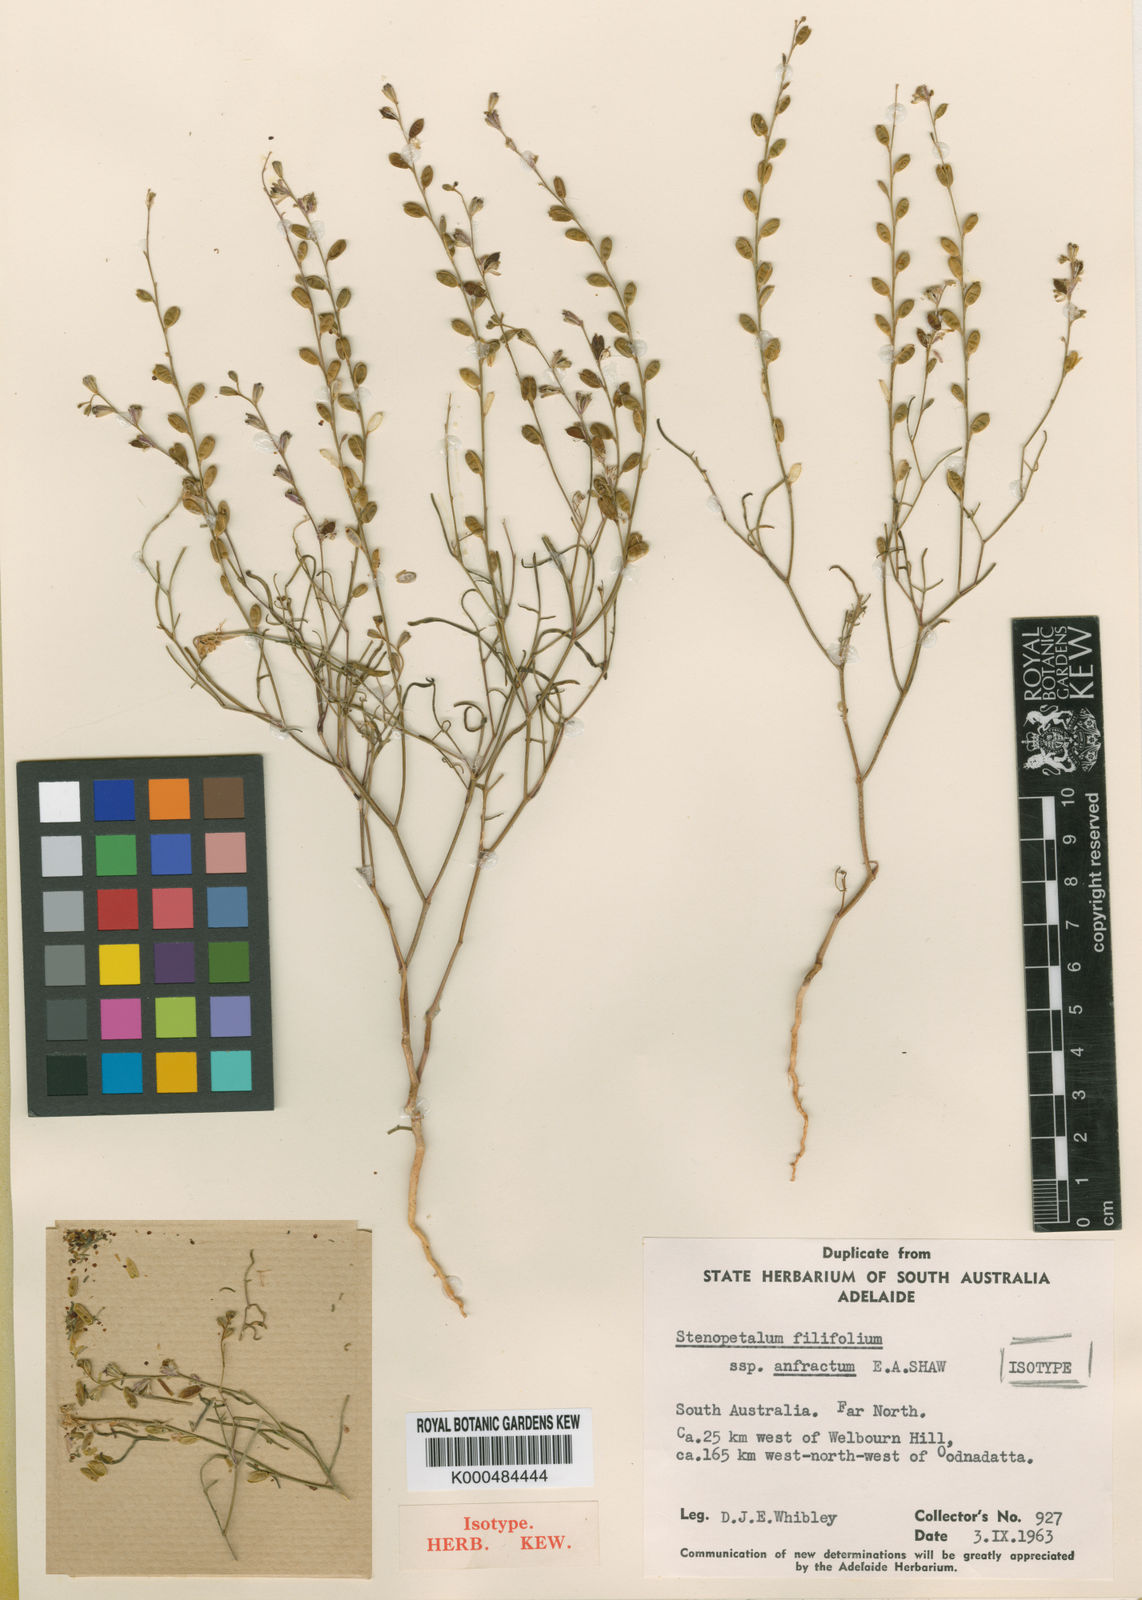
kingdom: Plantae
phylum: Tracheophyta
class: Magnoliopsida
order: Brassicales
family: Brassicaceae
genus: Stenopetalum
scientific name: Stenopetalum anfractum
